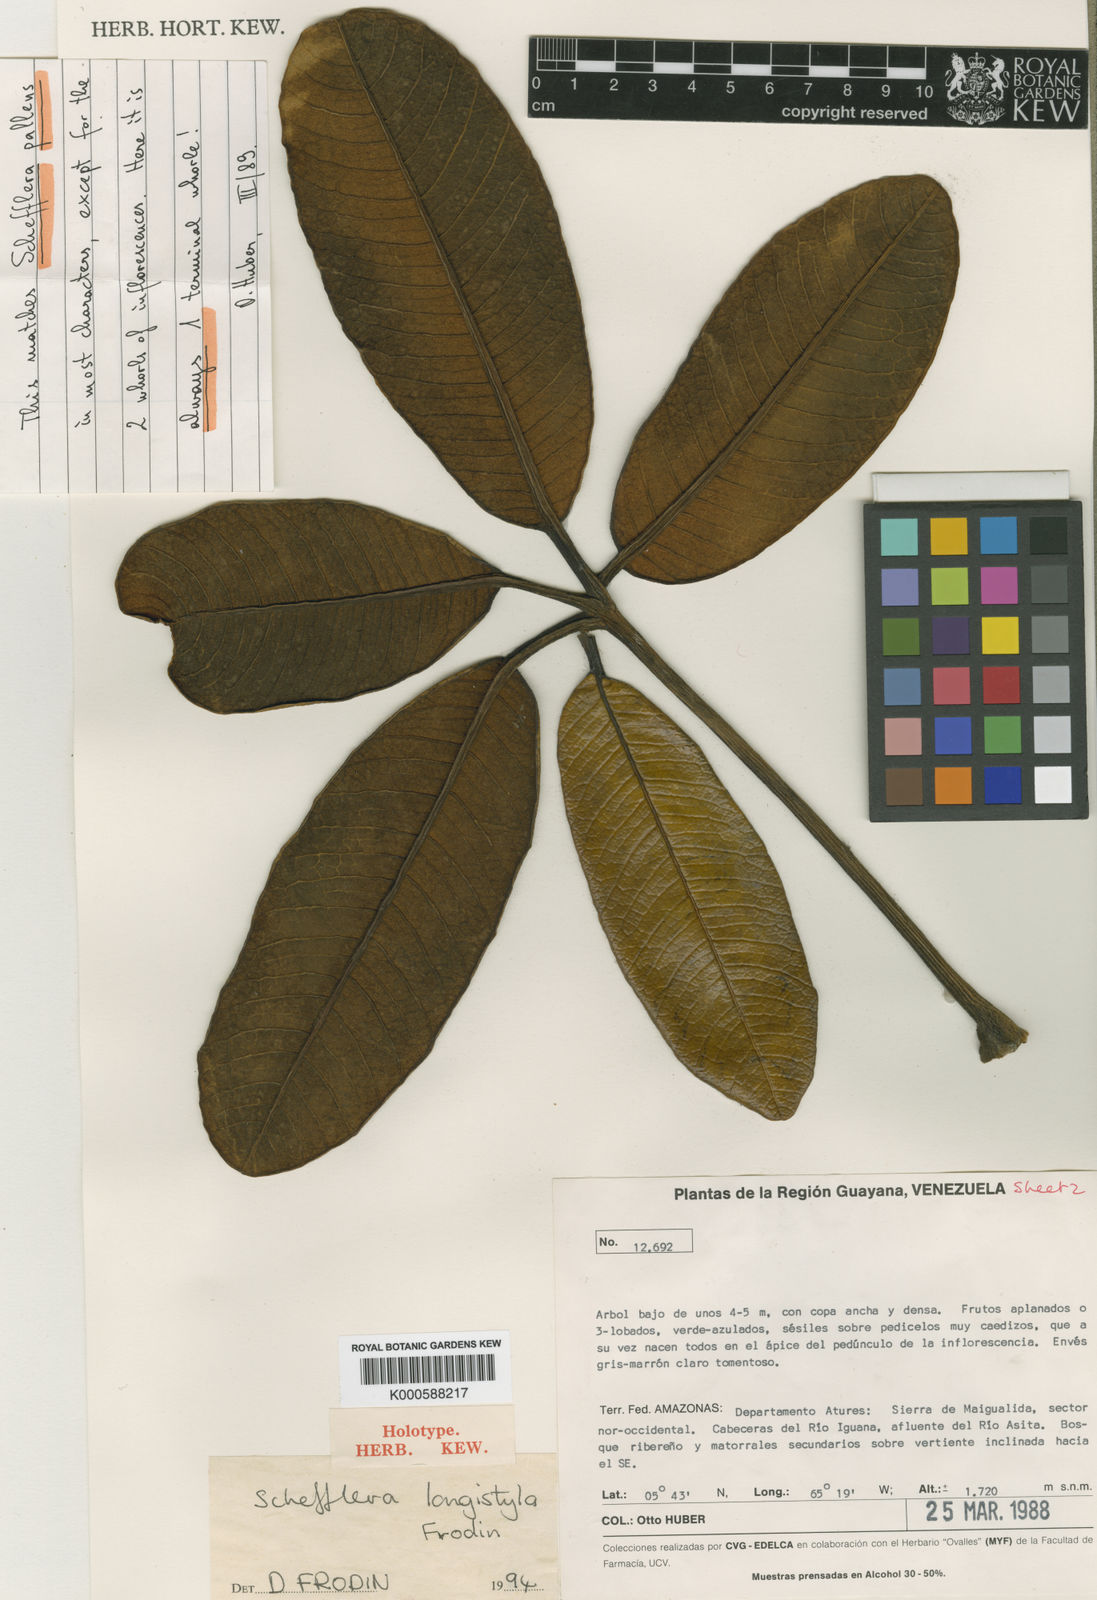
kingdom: Plantae
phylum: Tracheophyta
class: Magnoliopsida
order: Apiales
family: Araliaceae
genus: Crepinella
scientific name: Crepinella
